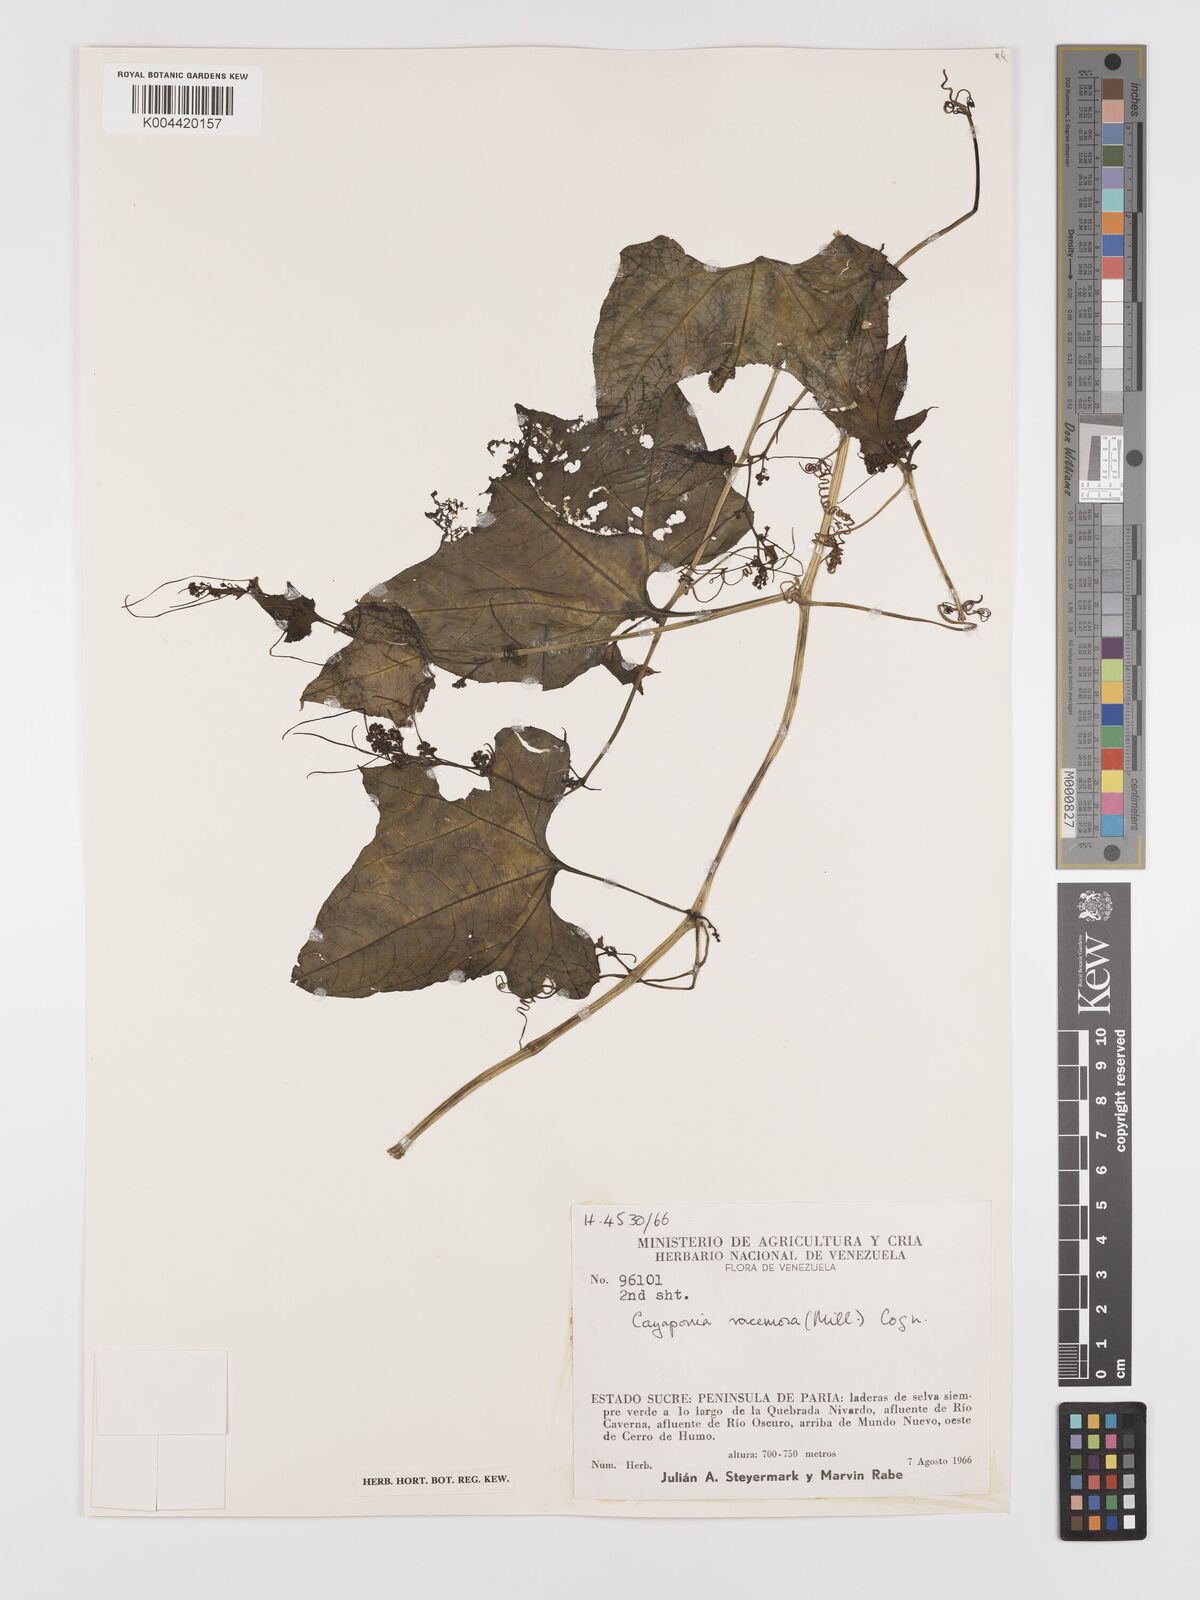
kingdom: Plantae
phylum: Tracheophyta
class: Magnoliopsida
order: Cucurbitales
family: Cucurbitaceae
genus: Cayaponia
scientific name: Cayaponia racemosa
